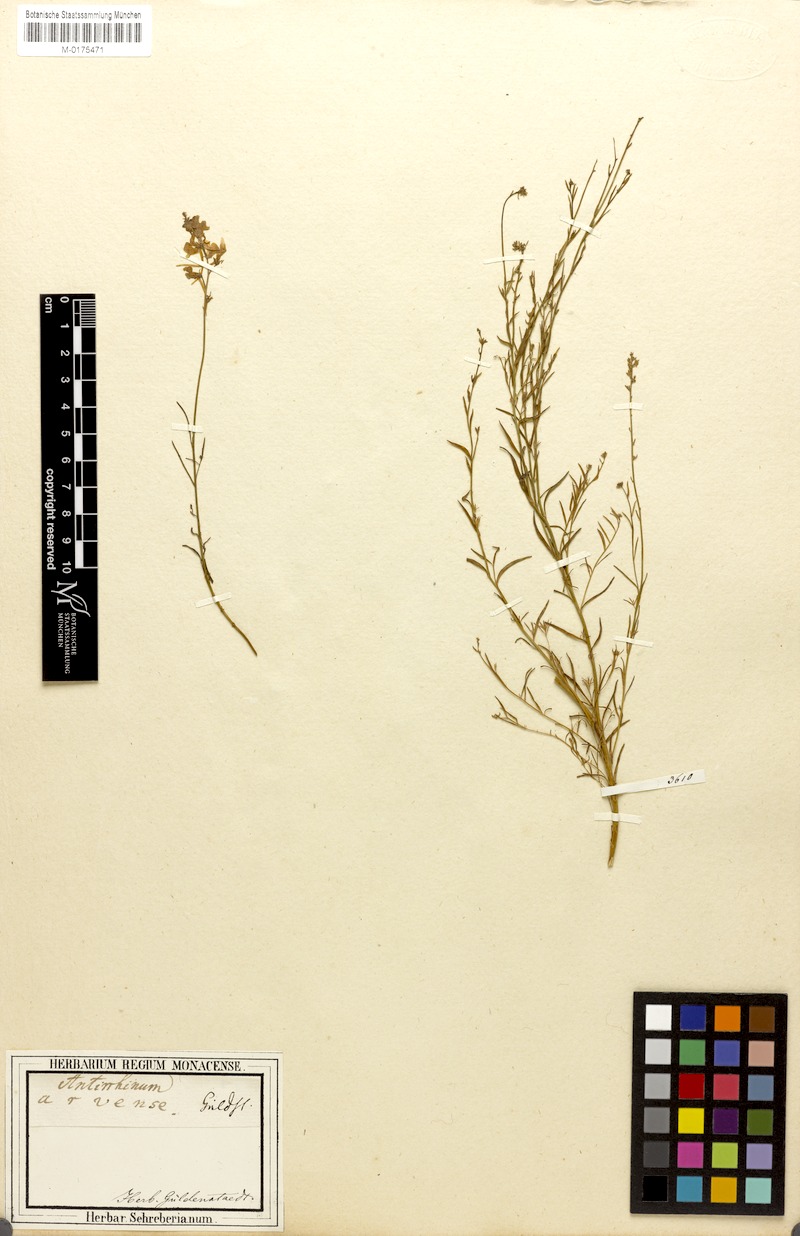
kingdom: Plantae
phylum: Tracheophyta
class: Magnoliopsida
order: Lamiales
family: Plantaginaceae
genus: Linaria
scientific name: Linaria odora
